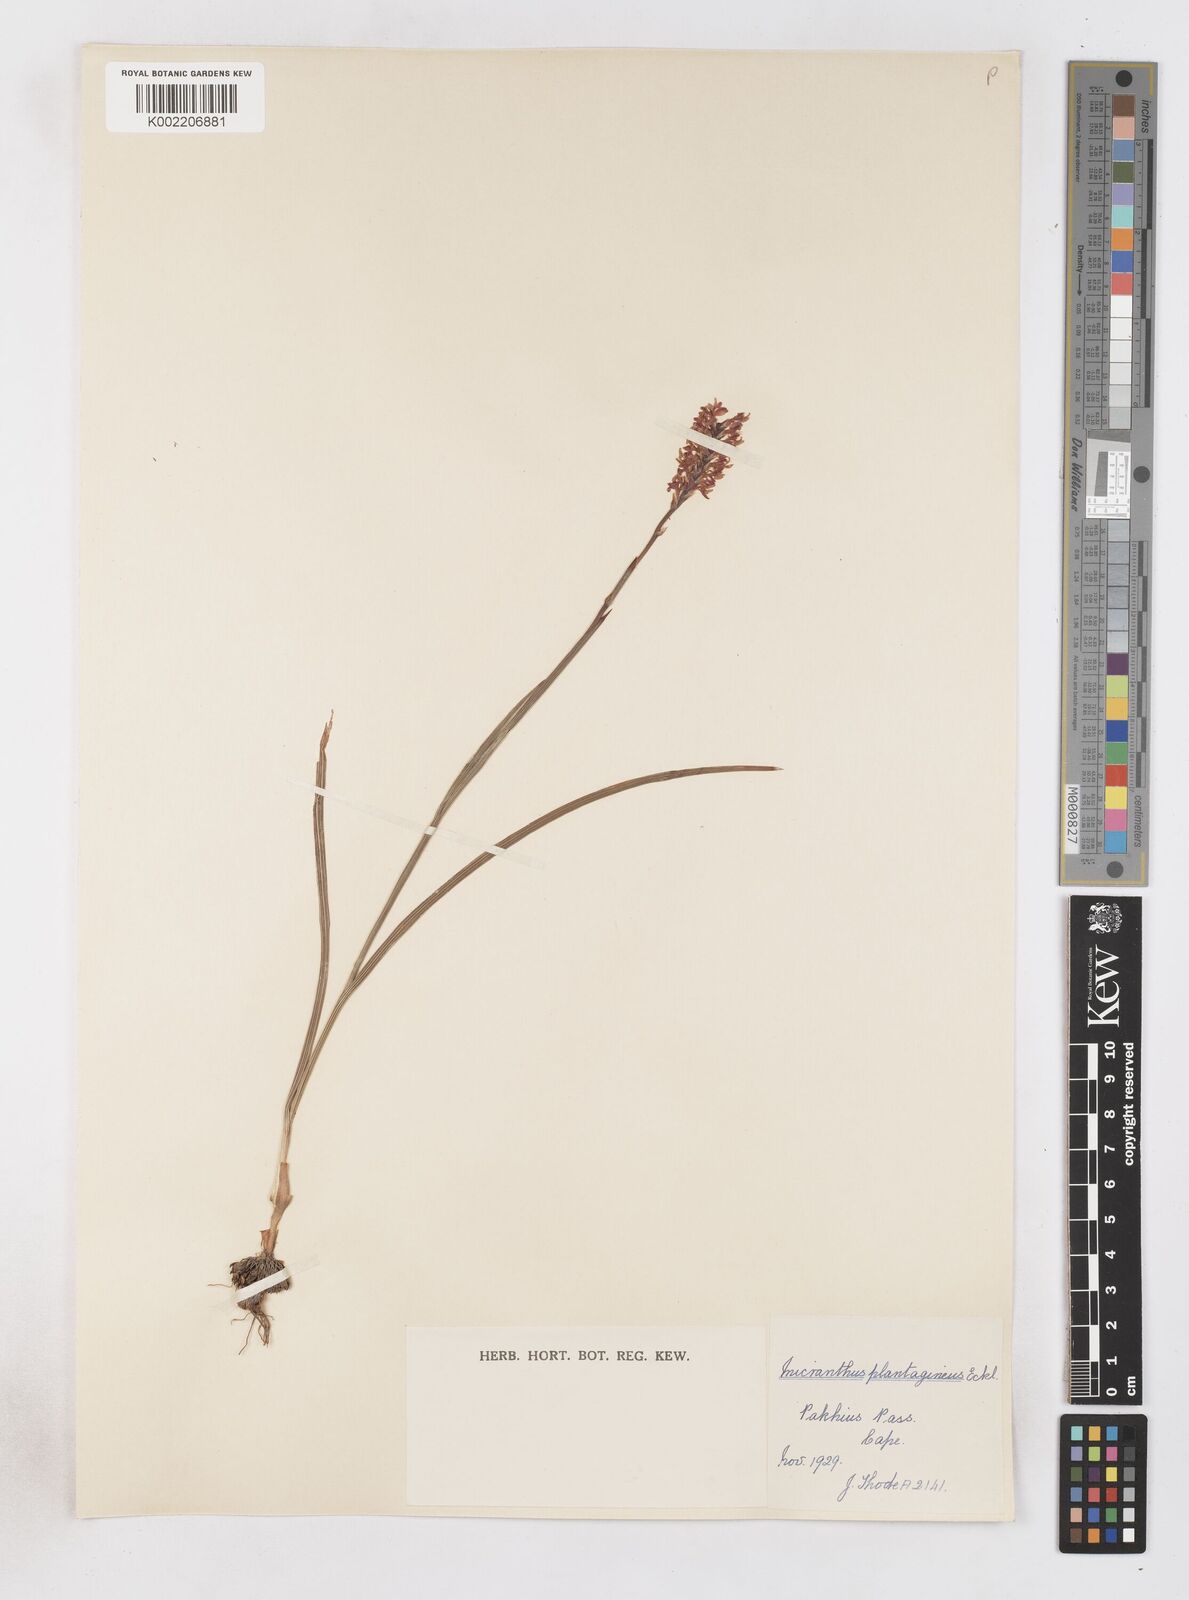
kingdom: Plantae
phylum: Tracheophyta
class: Liliopsida
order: Asparagales
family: Iridaceae
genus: Micranthus
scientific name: Micranthus plantagineus
